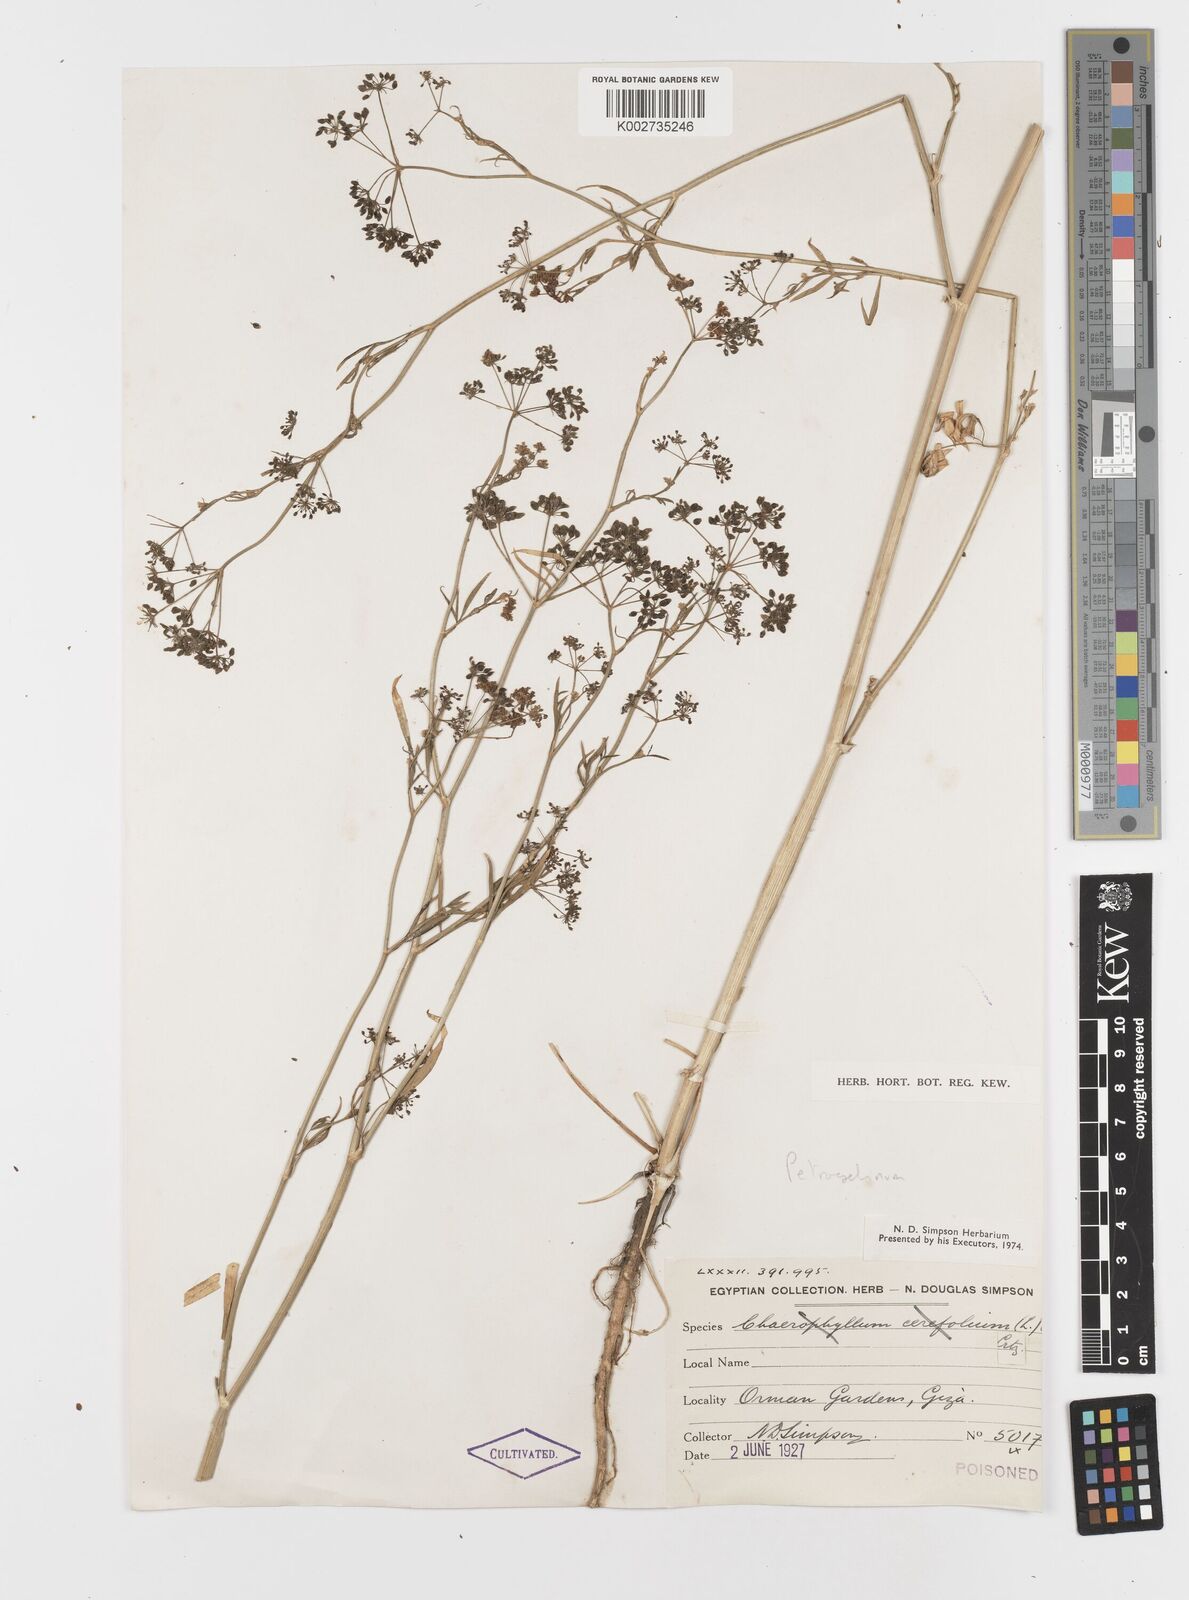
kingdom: Plantae
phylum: Tracheophyta
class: Magnoliopsida
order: Apiales
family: Apiaceae
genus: Petroselinum
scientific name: Petroselinum
